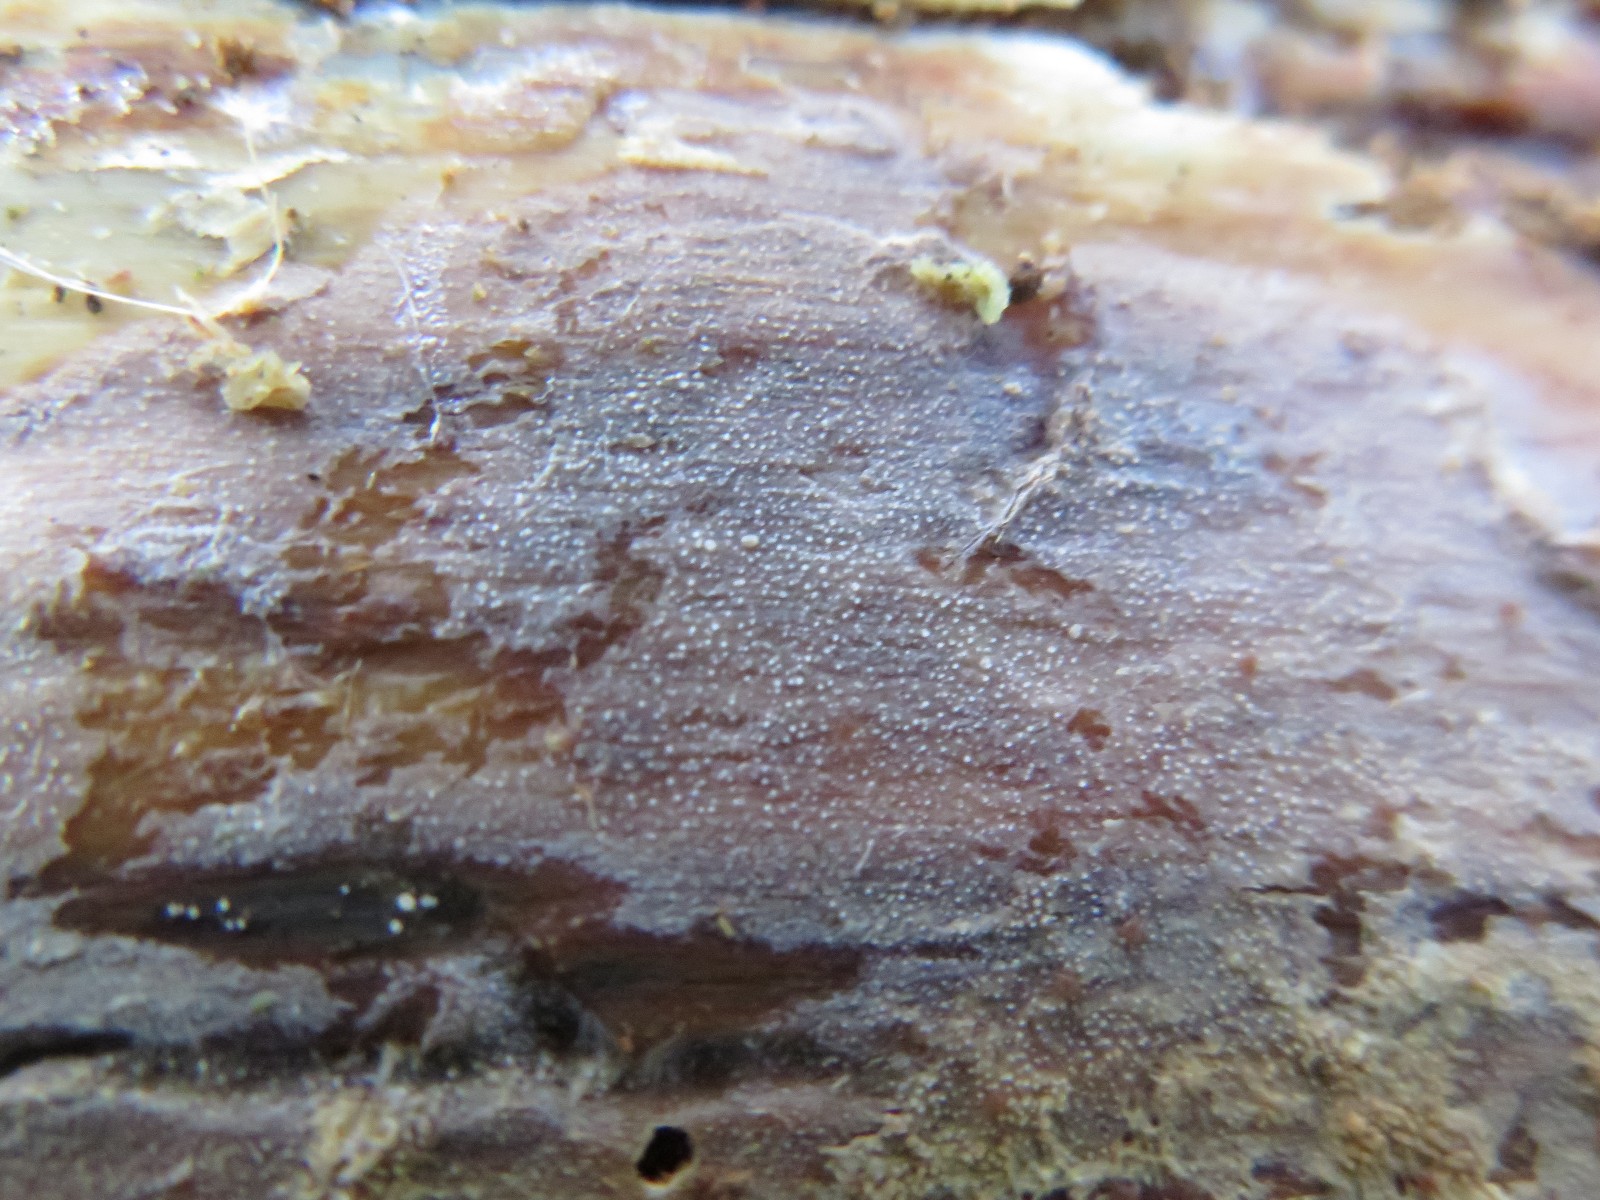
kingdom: Fungi
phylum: Basidiomycota
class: Agaricomycetes
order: Hymenochaetales
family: Rickenellaceae
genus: Resinicium
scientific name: Resinicium bicolor
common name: almindelig vokstand
